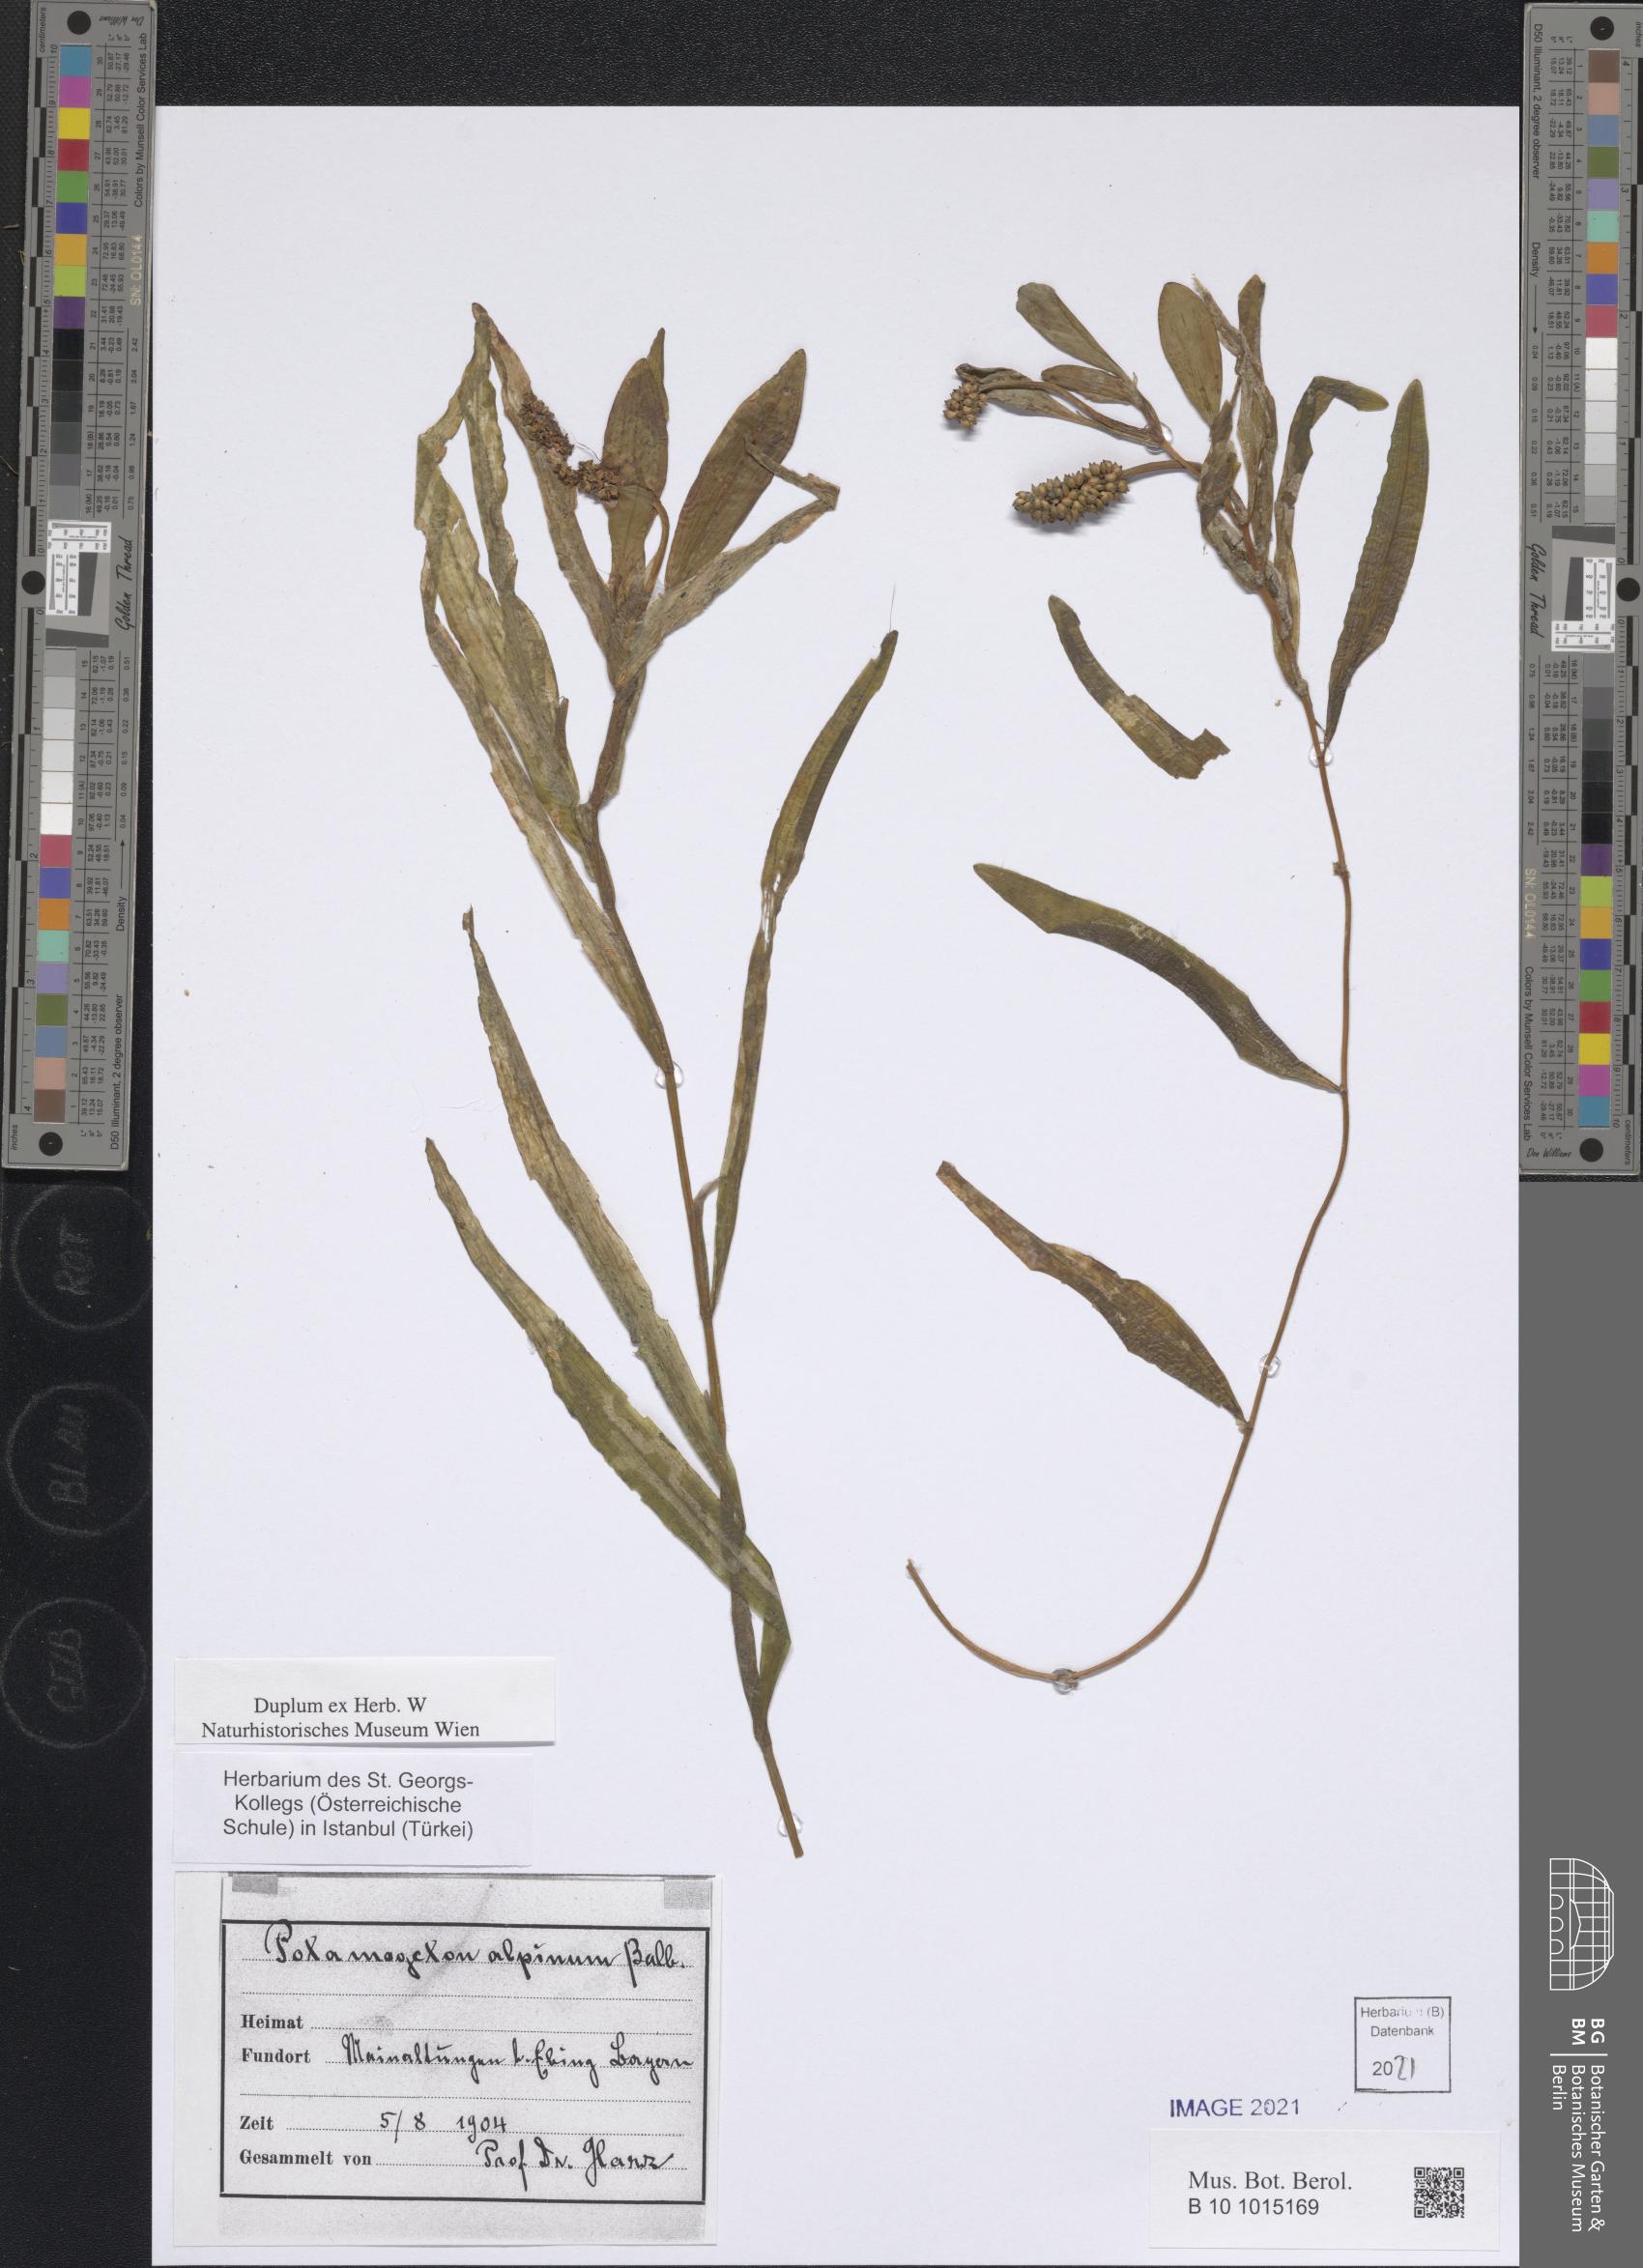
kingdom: Plantae
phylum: Tracheophyta
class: Liliopsida
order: Alismatales
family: Potamogetonaceae
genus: Potamogeton
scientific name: Potamogeton alpinus
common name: Red pondweed
